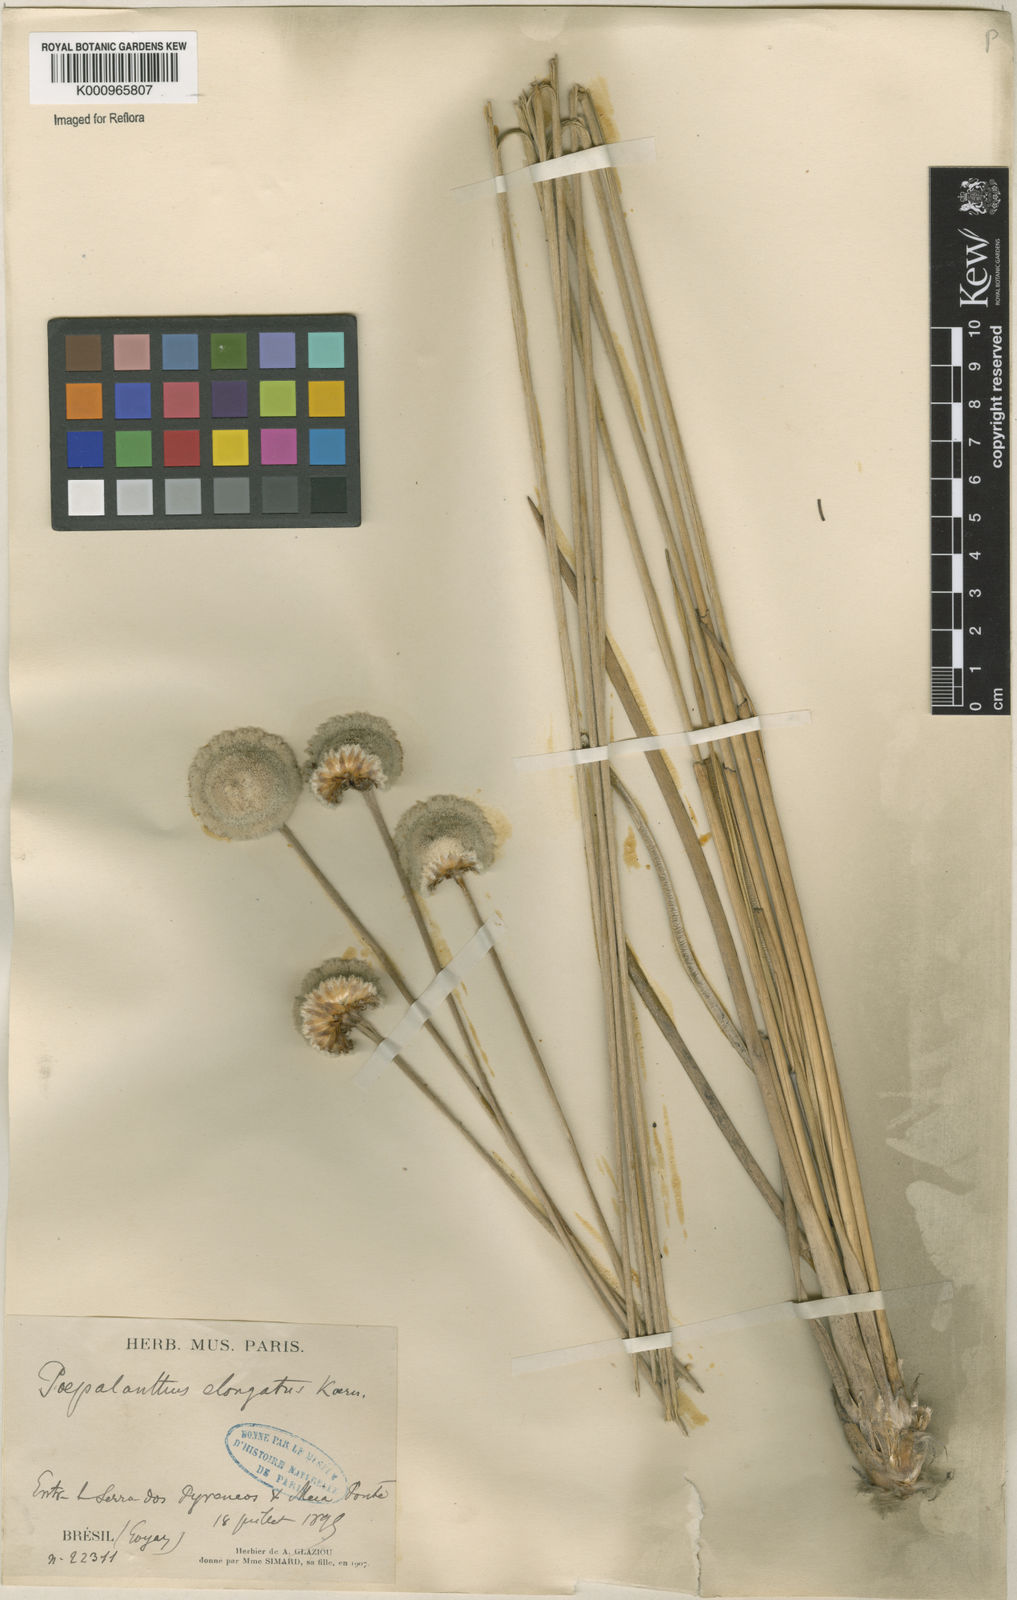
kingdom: Plantae
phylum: Tracheophyta
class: Liliopsida
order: Poales
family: Eriocaulaceae
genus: Paepalanthus
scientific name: Paepalanthus
